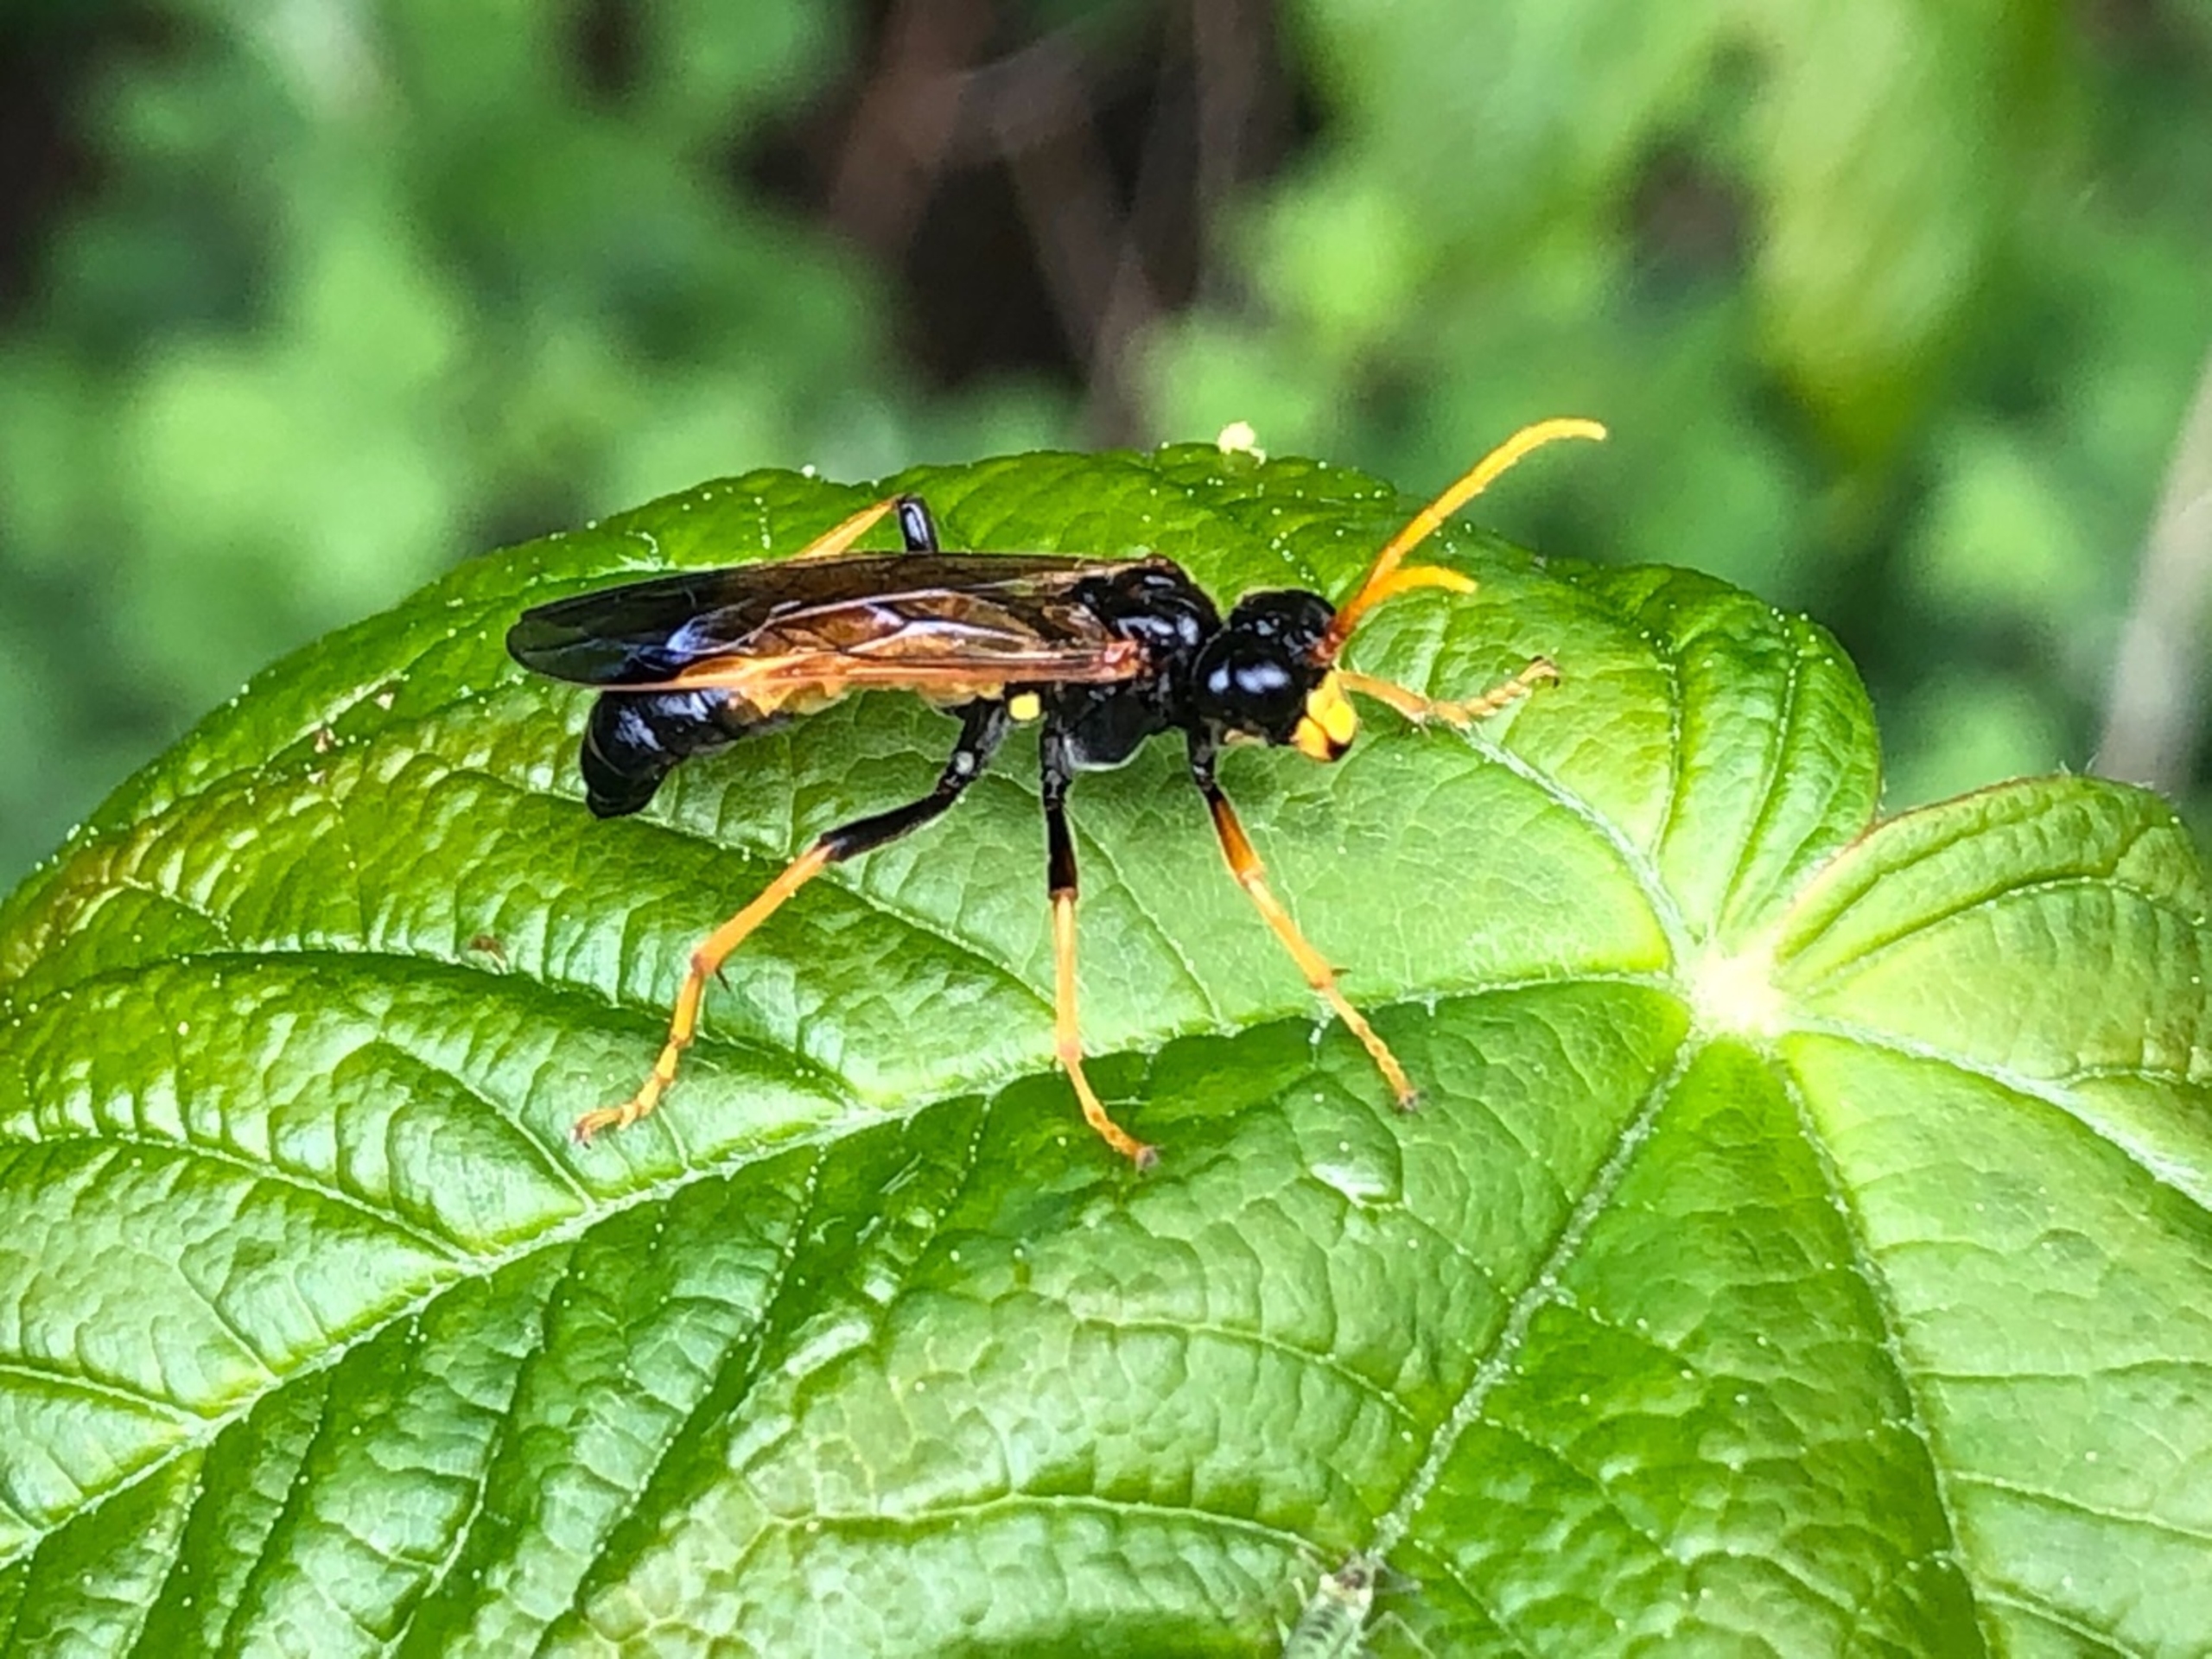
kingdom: Animalia
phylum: Arthropoda
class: Insecta
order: Hymenoptera
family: Tenthredinidae
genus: Tenthredo
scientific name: Tenthredo campestris
